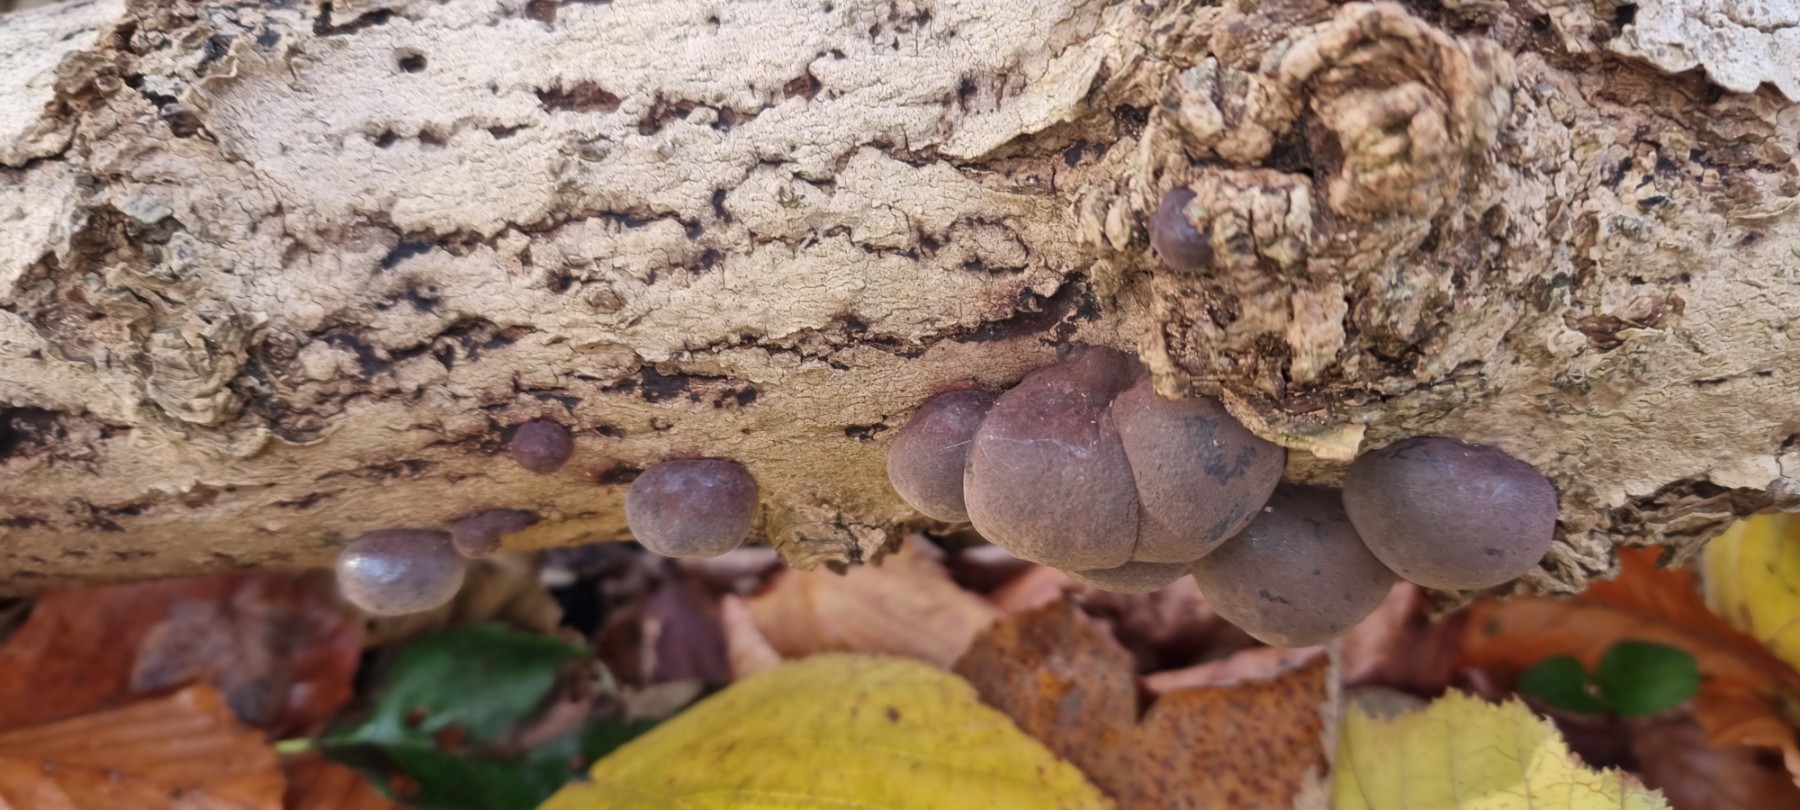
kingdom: Fungi
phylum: Ascomycota
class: Sordariomycetes
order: Xylariales
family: Hypoxylaceae
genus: Daldinia
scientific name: Daldinia concentrica
